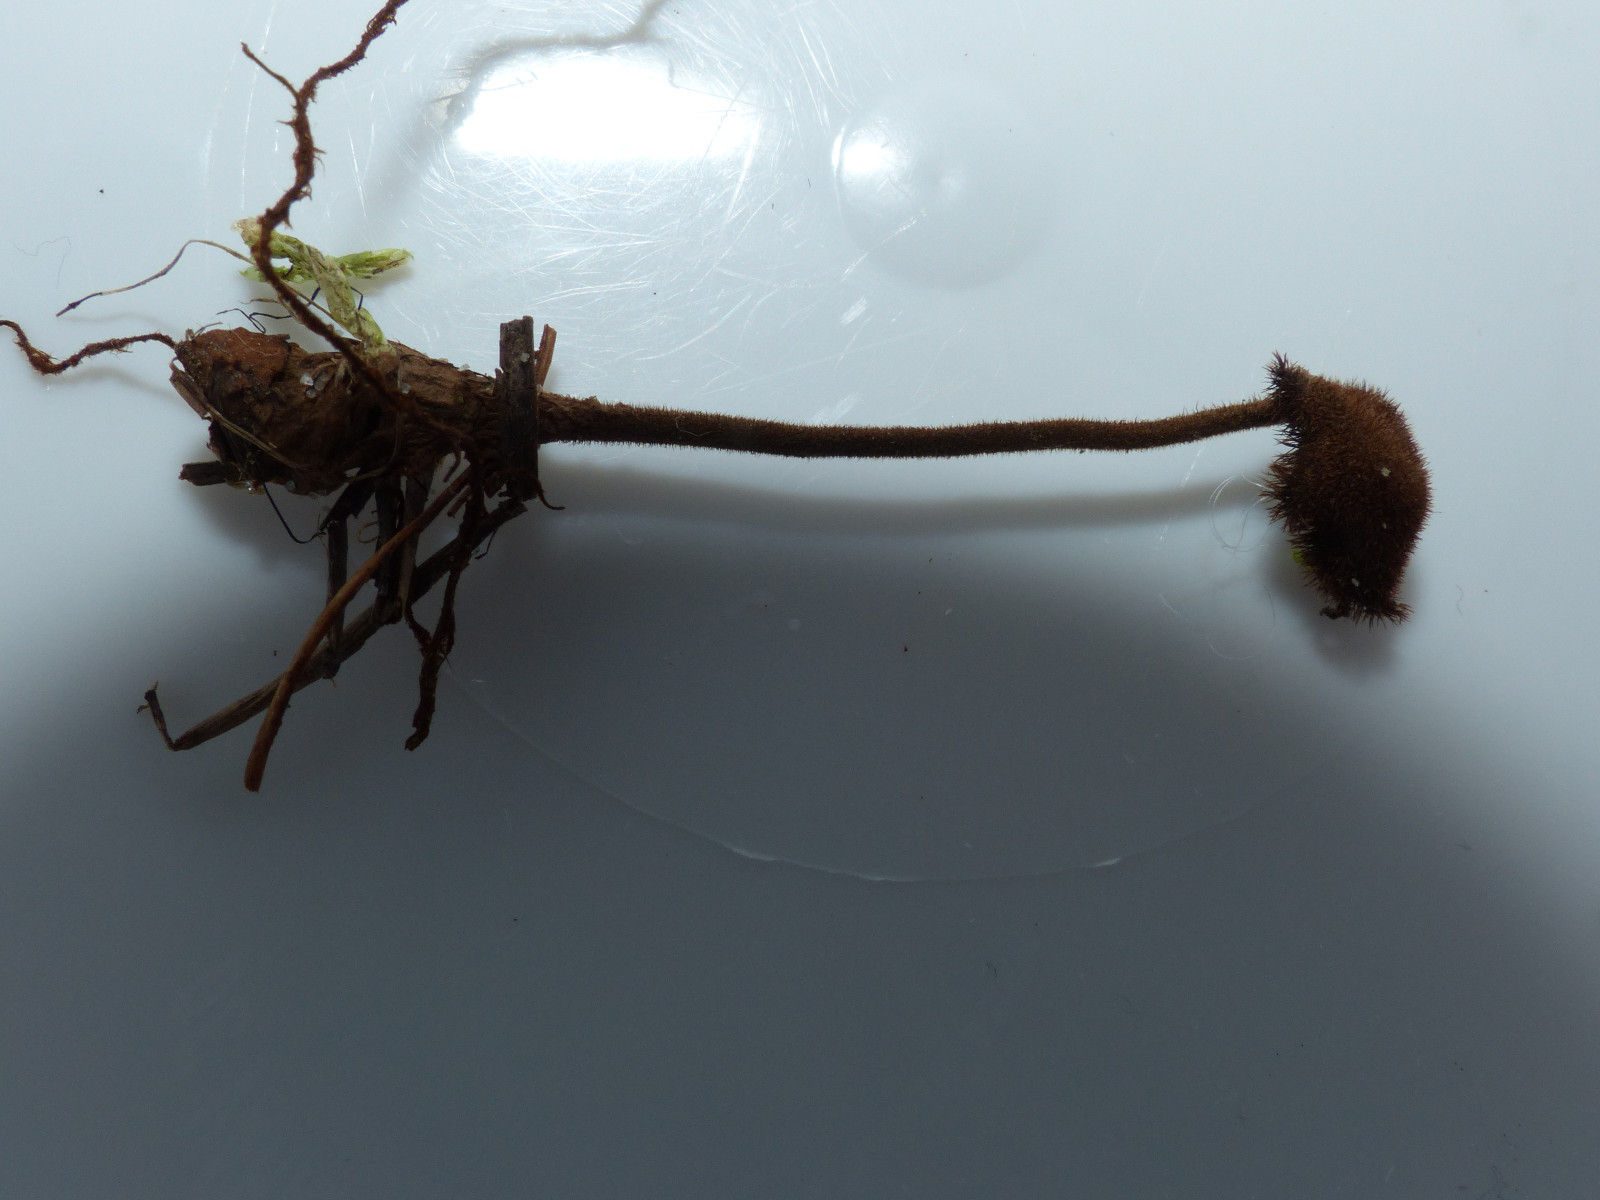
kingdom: Fungi
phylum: Basidiomycota
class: Agaricomycetes
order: Russulales
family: Auriscalpiaceae
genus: Auriscalpium
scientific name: Auriscalpium vulgare
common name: koglepigsvamp
